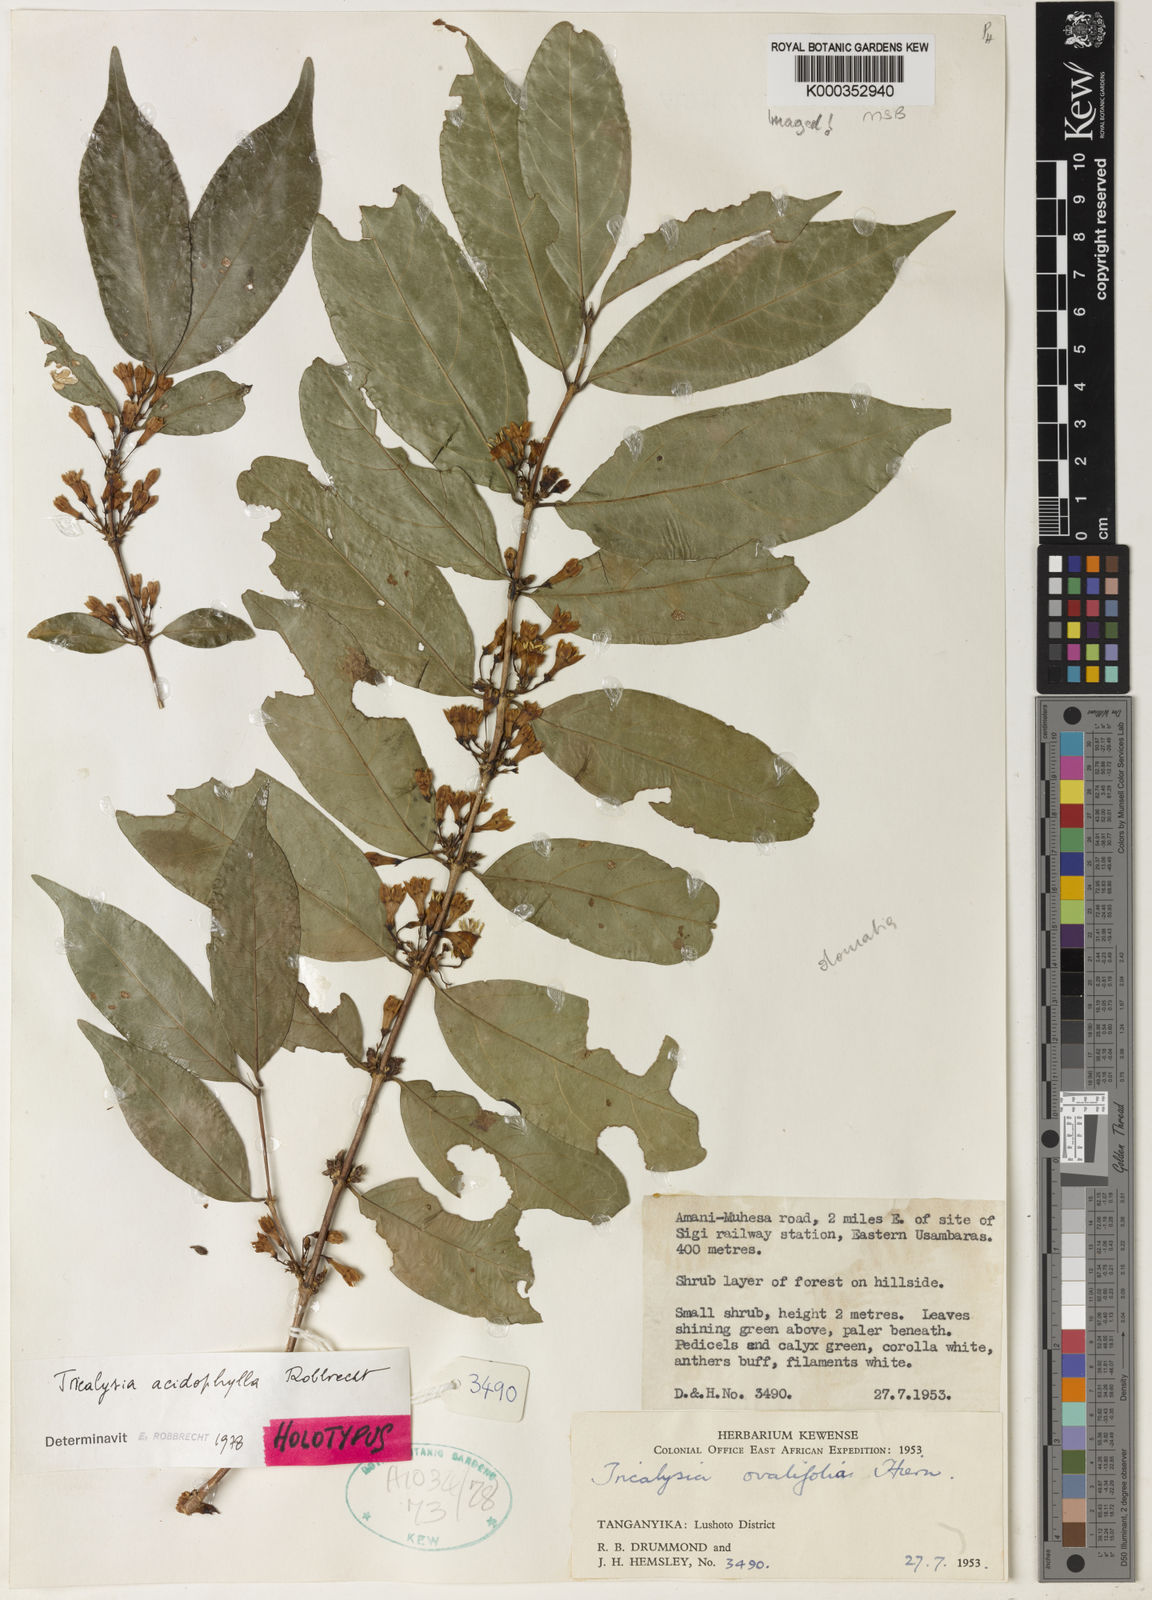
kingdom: Plantae
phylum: Tracheophyta
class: Magnoliopsida
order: Gentianales
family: Rubiaceae
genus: Empogona
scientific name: Empogona acidophylla
